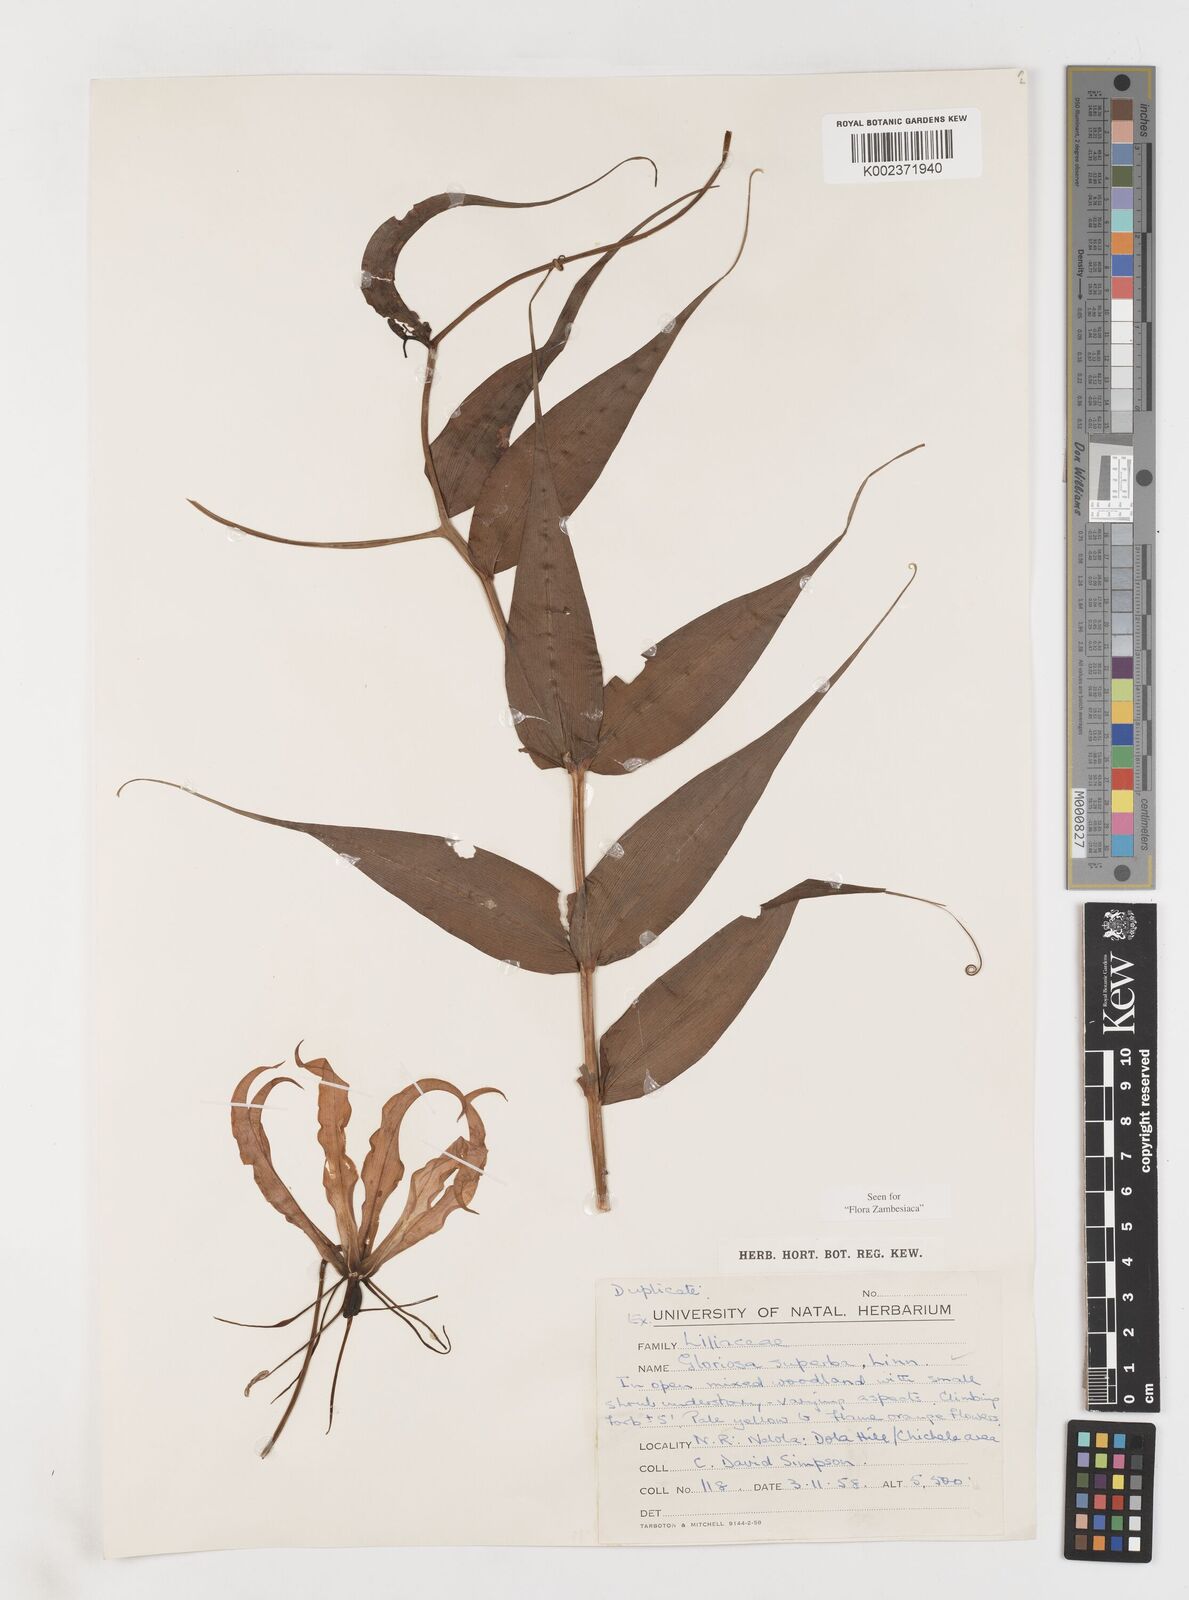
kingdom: Plantae
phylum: Tracheophyta
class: Liliopsida
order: Liliales
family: Colchicaceae
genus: Gloriosa
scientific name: Gloriosa simplex
